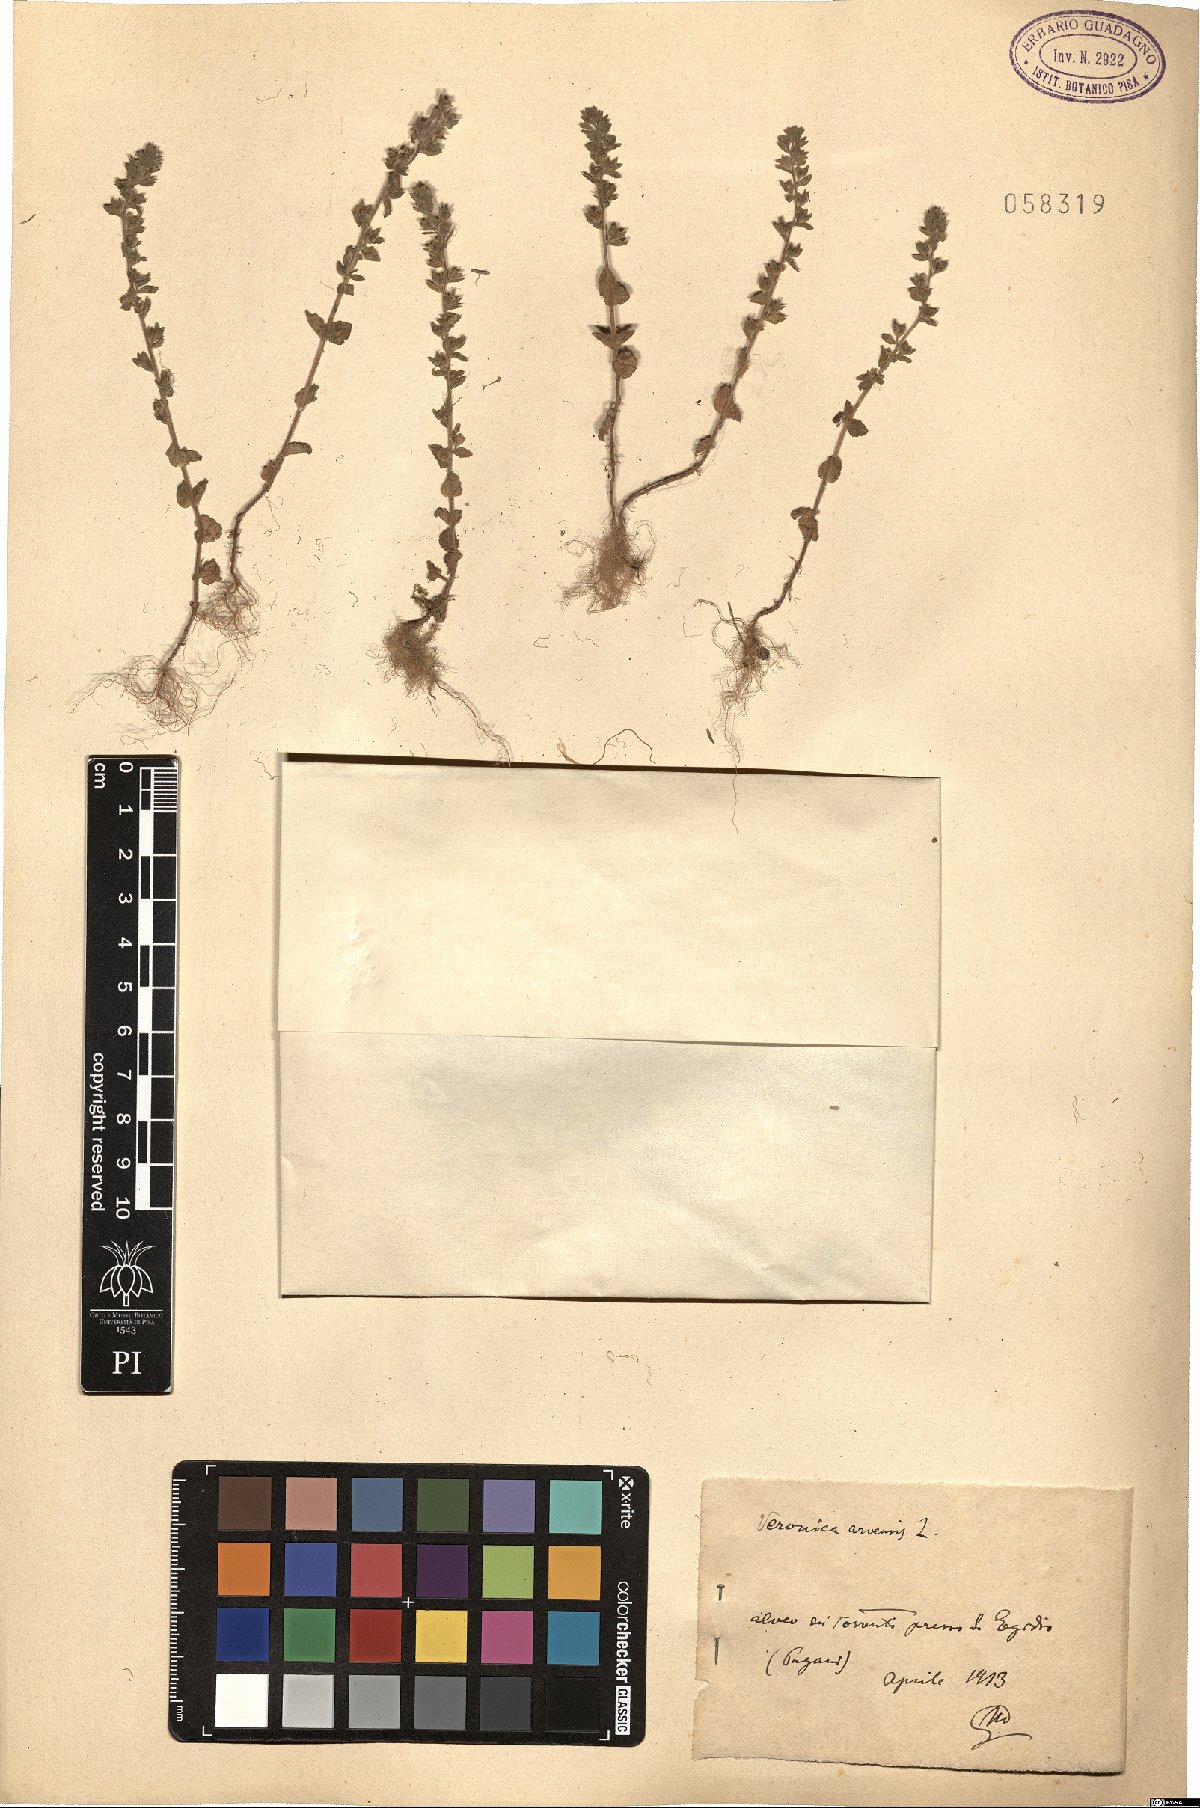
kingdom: Plantae
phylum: Tracheophyta
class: Magnoliopsida
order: Lamiales
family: Plantaginaceae
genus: Veronica
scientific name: Veronica arvensis
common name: Corn speedwell
